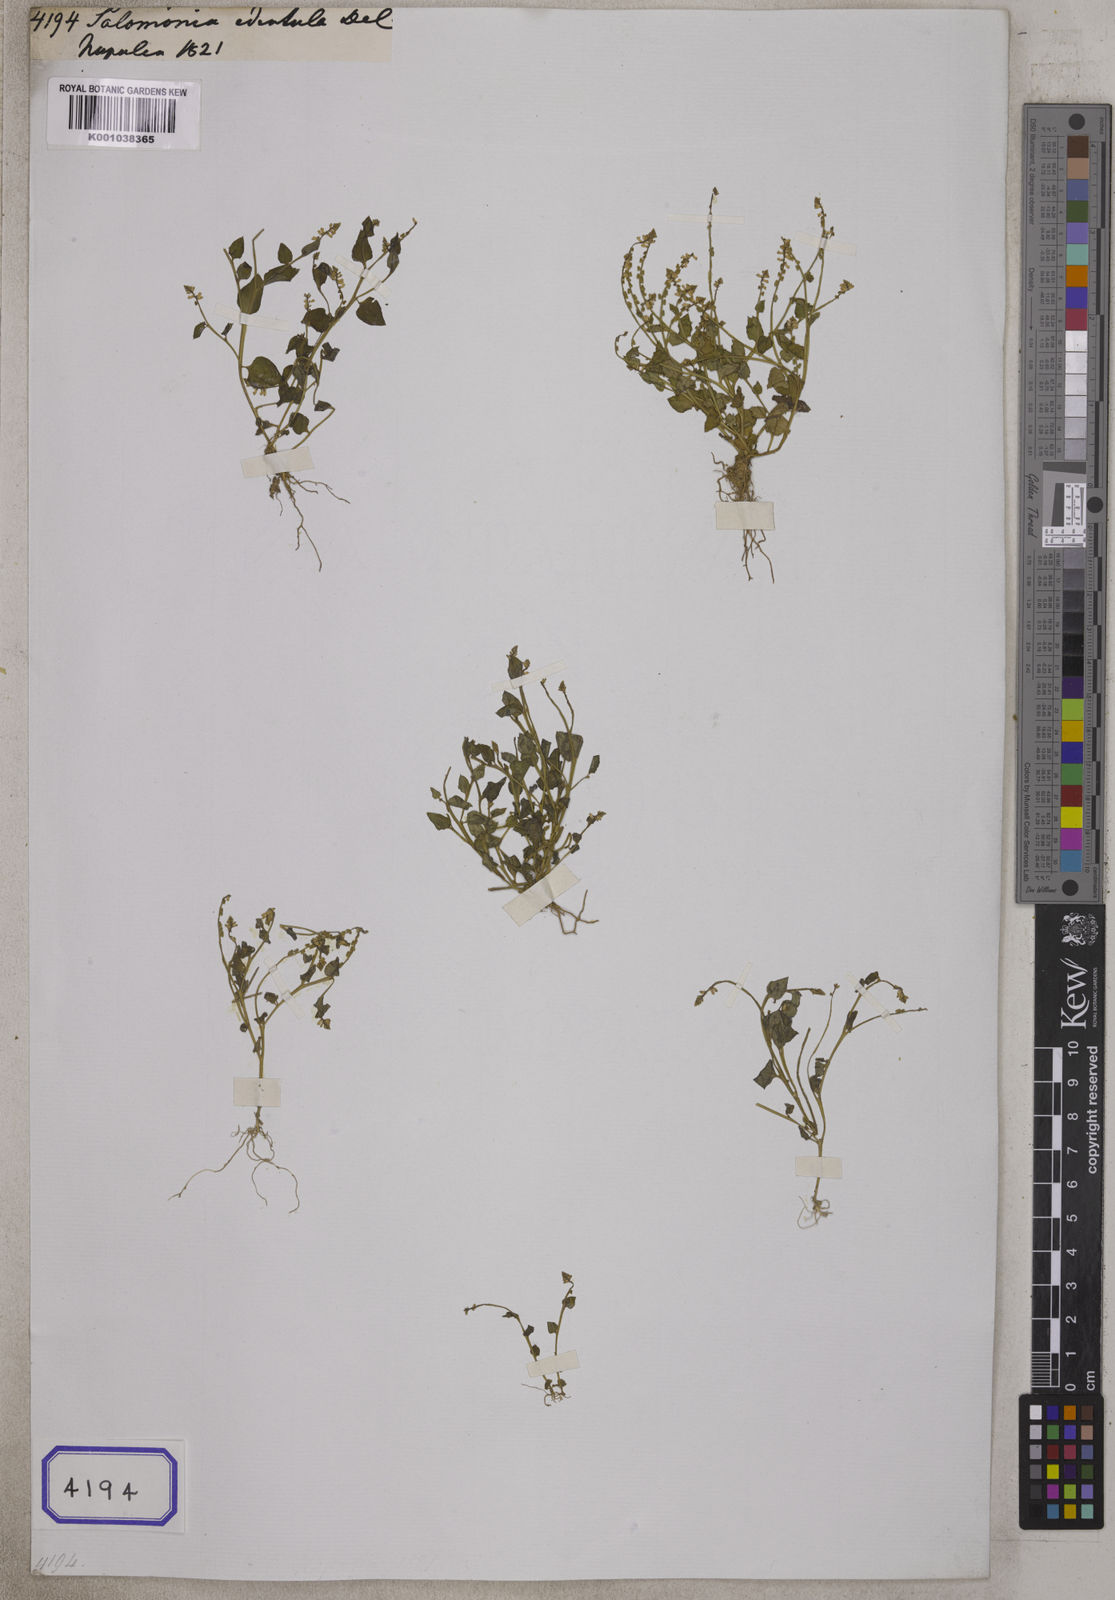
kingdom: Plantae
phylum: Tracheophyta
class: Magnoliopsida
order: Fabales
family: Polygalaceae
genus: Salomonia
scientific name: Salomonia cantoniensis
